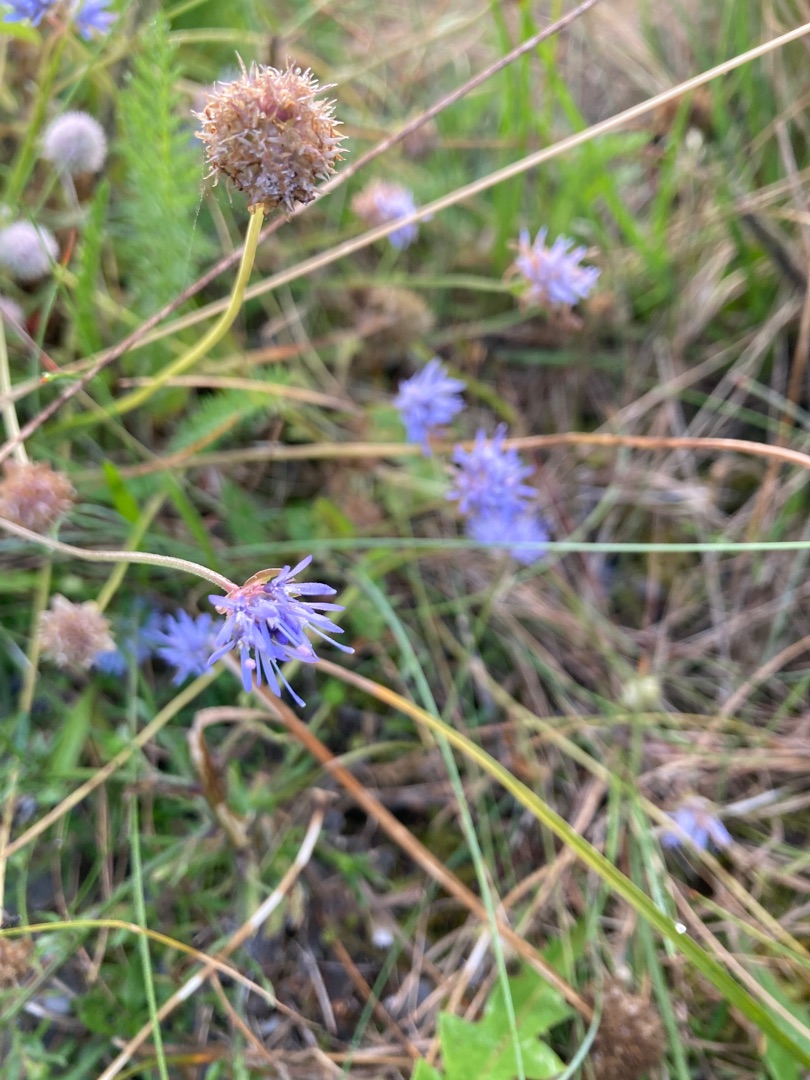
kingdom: Plantae
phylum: Tracheophyta
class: Magnoliopsida
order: Asterales
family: Campanulaceae
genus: Jasione
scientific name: Jasione montana
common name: Blåmunke
